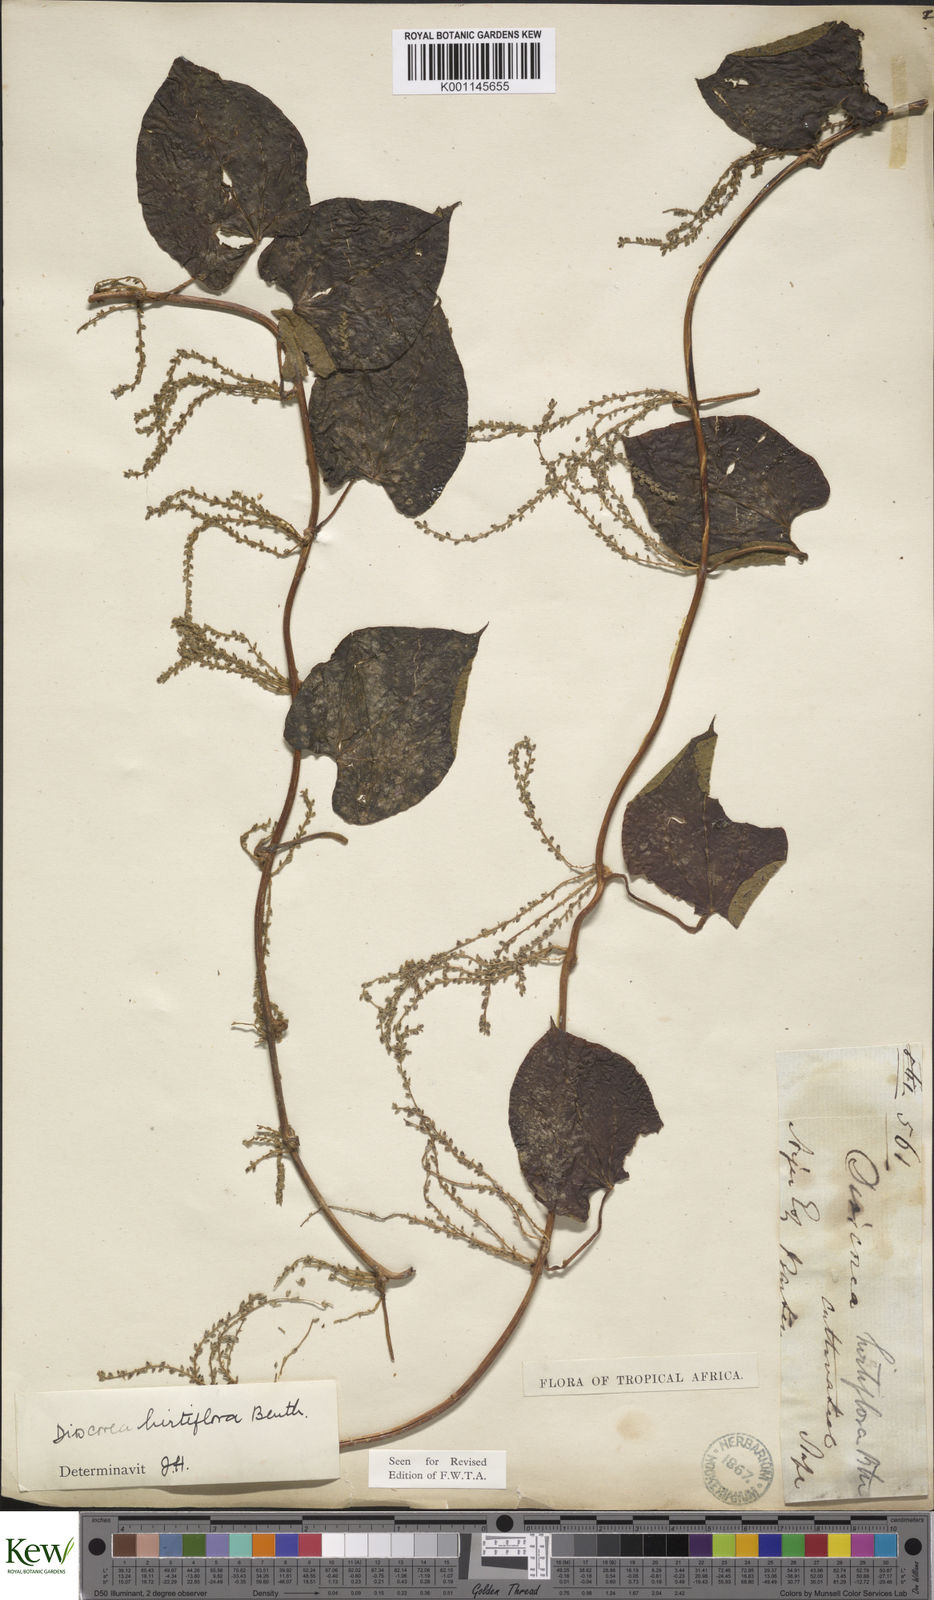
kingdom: Plantae
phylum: Tracheophyta
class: Liliopsida
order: Dioscoreales
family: Dioscoreaceae
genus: Dioscorea
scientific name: Dioscorea hirtiflora
